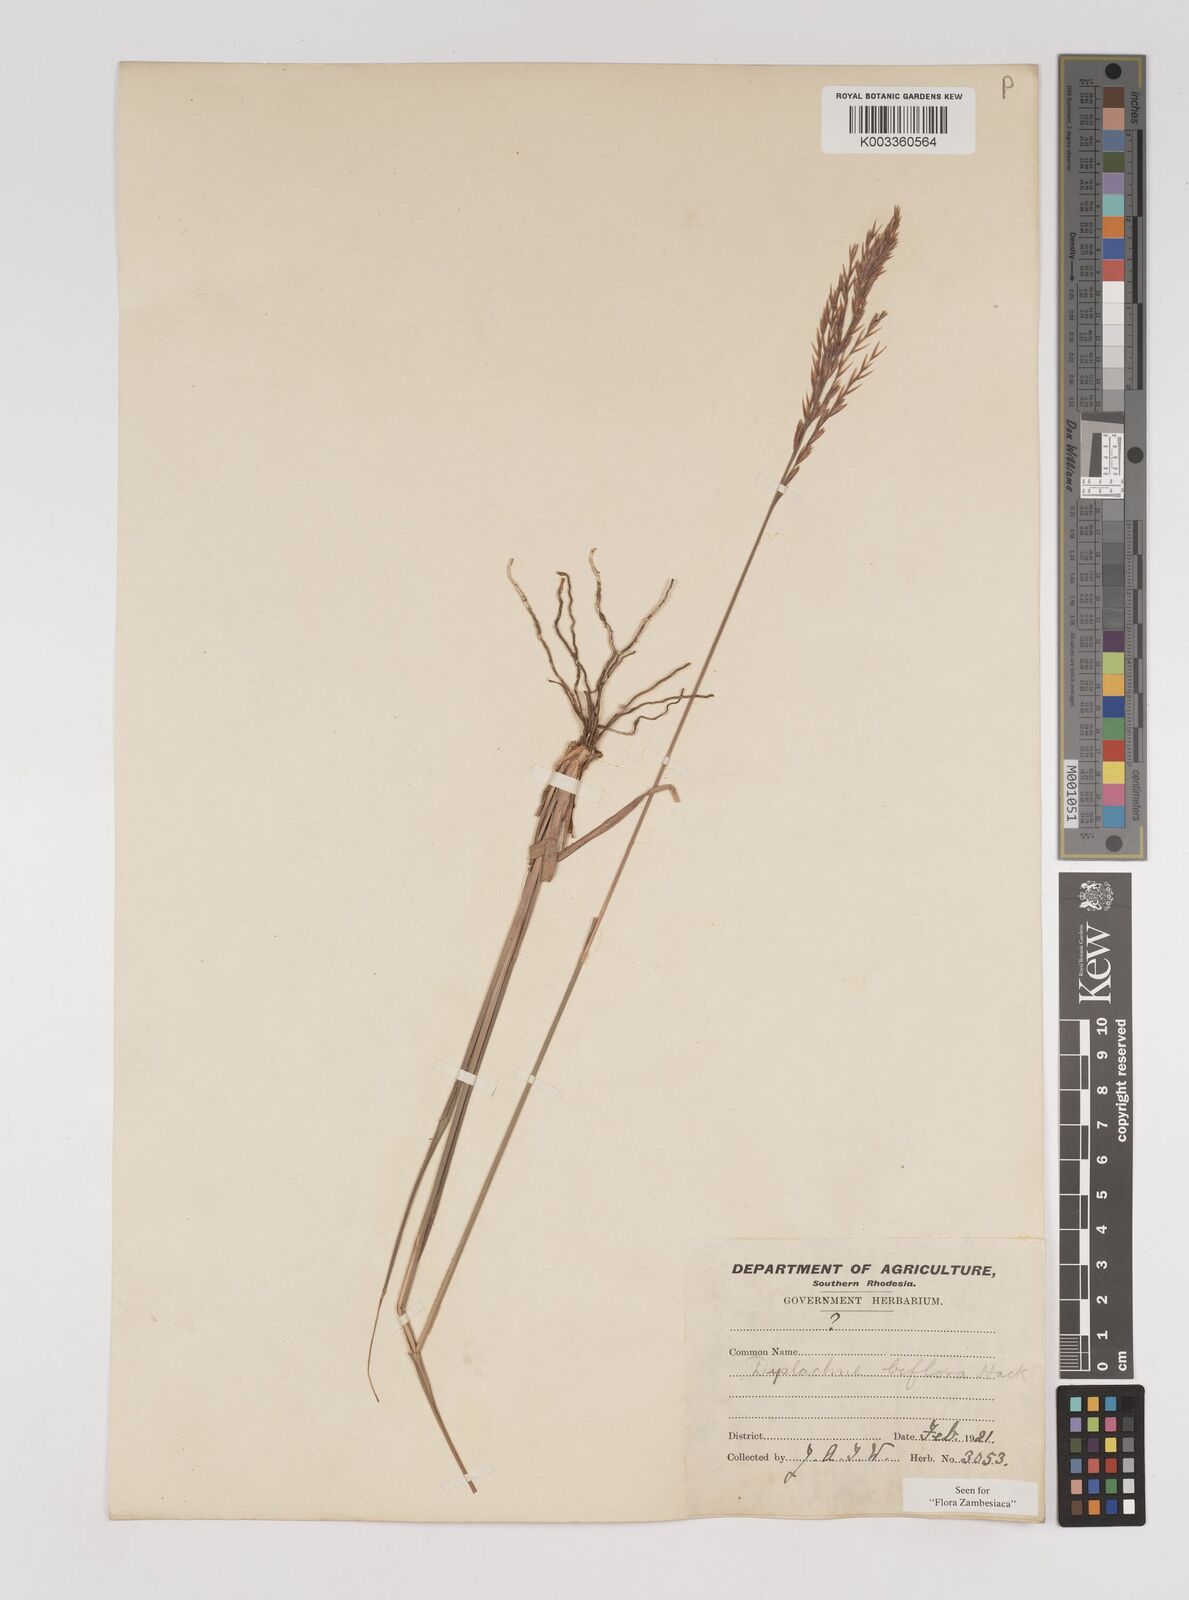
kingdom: Plantae
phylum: Tracheophyta
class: Liliopsida
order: Poales
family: Poaceae
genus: Bewsia
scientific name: Bewsia biflora
